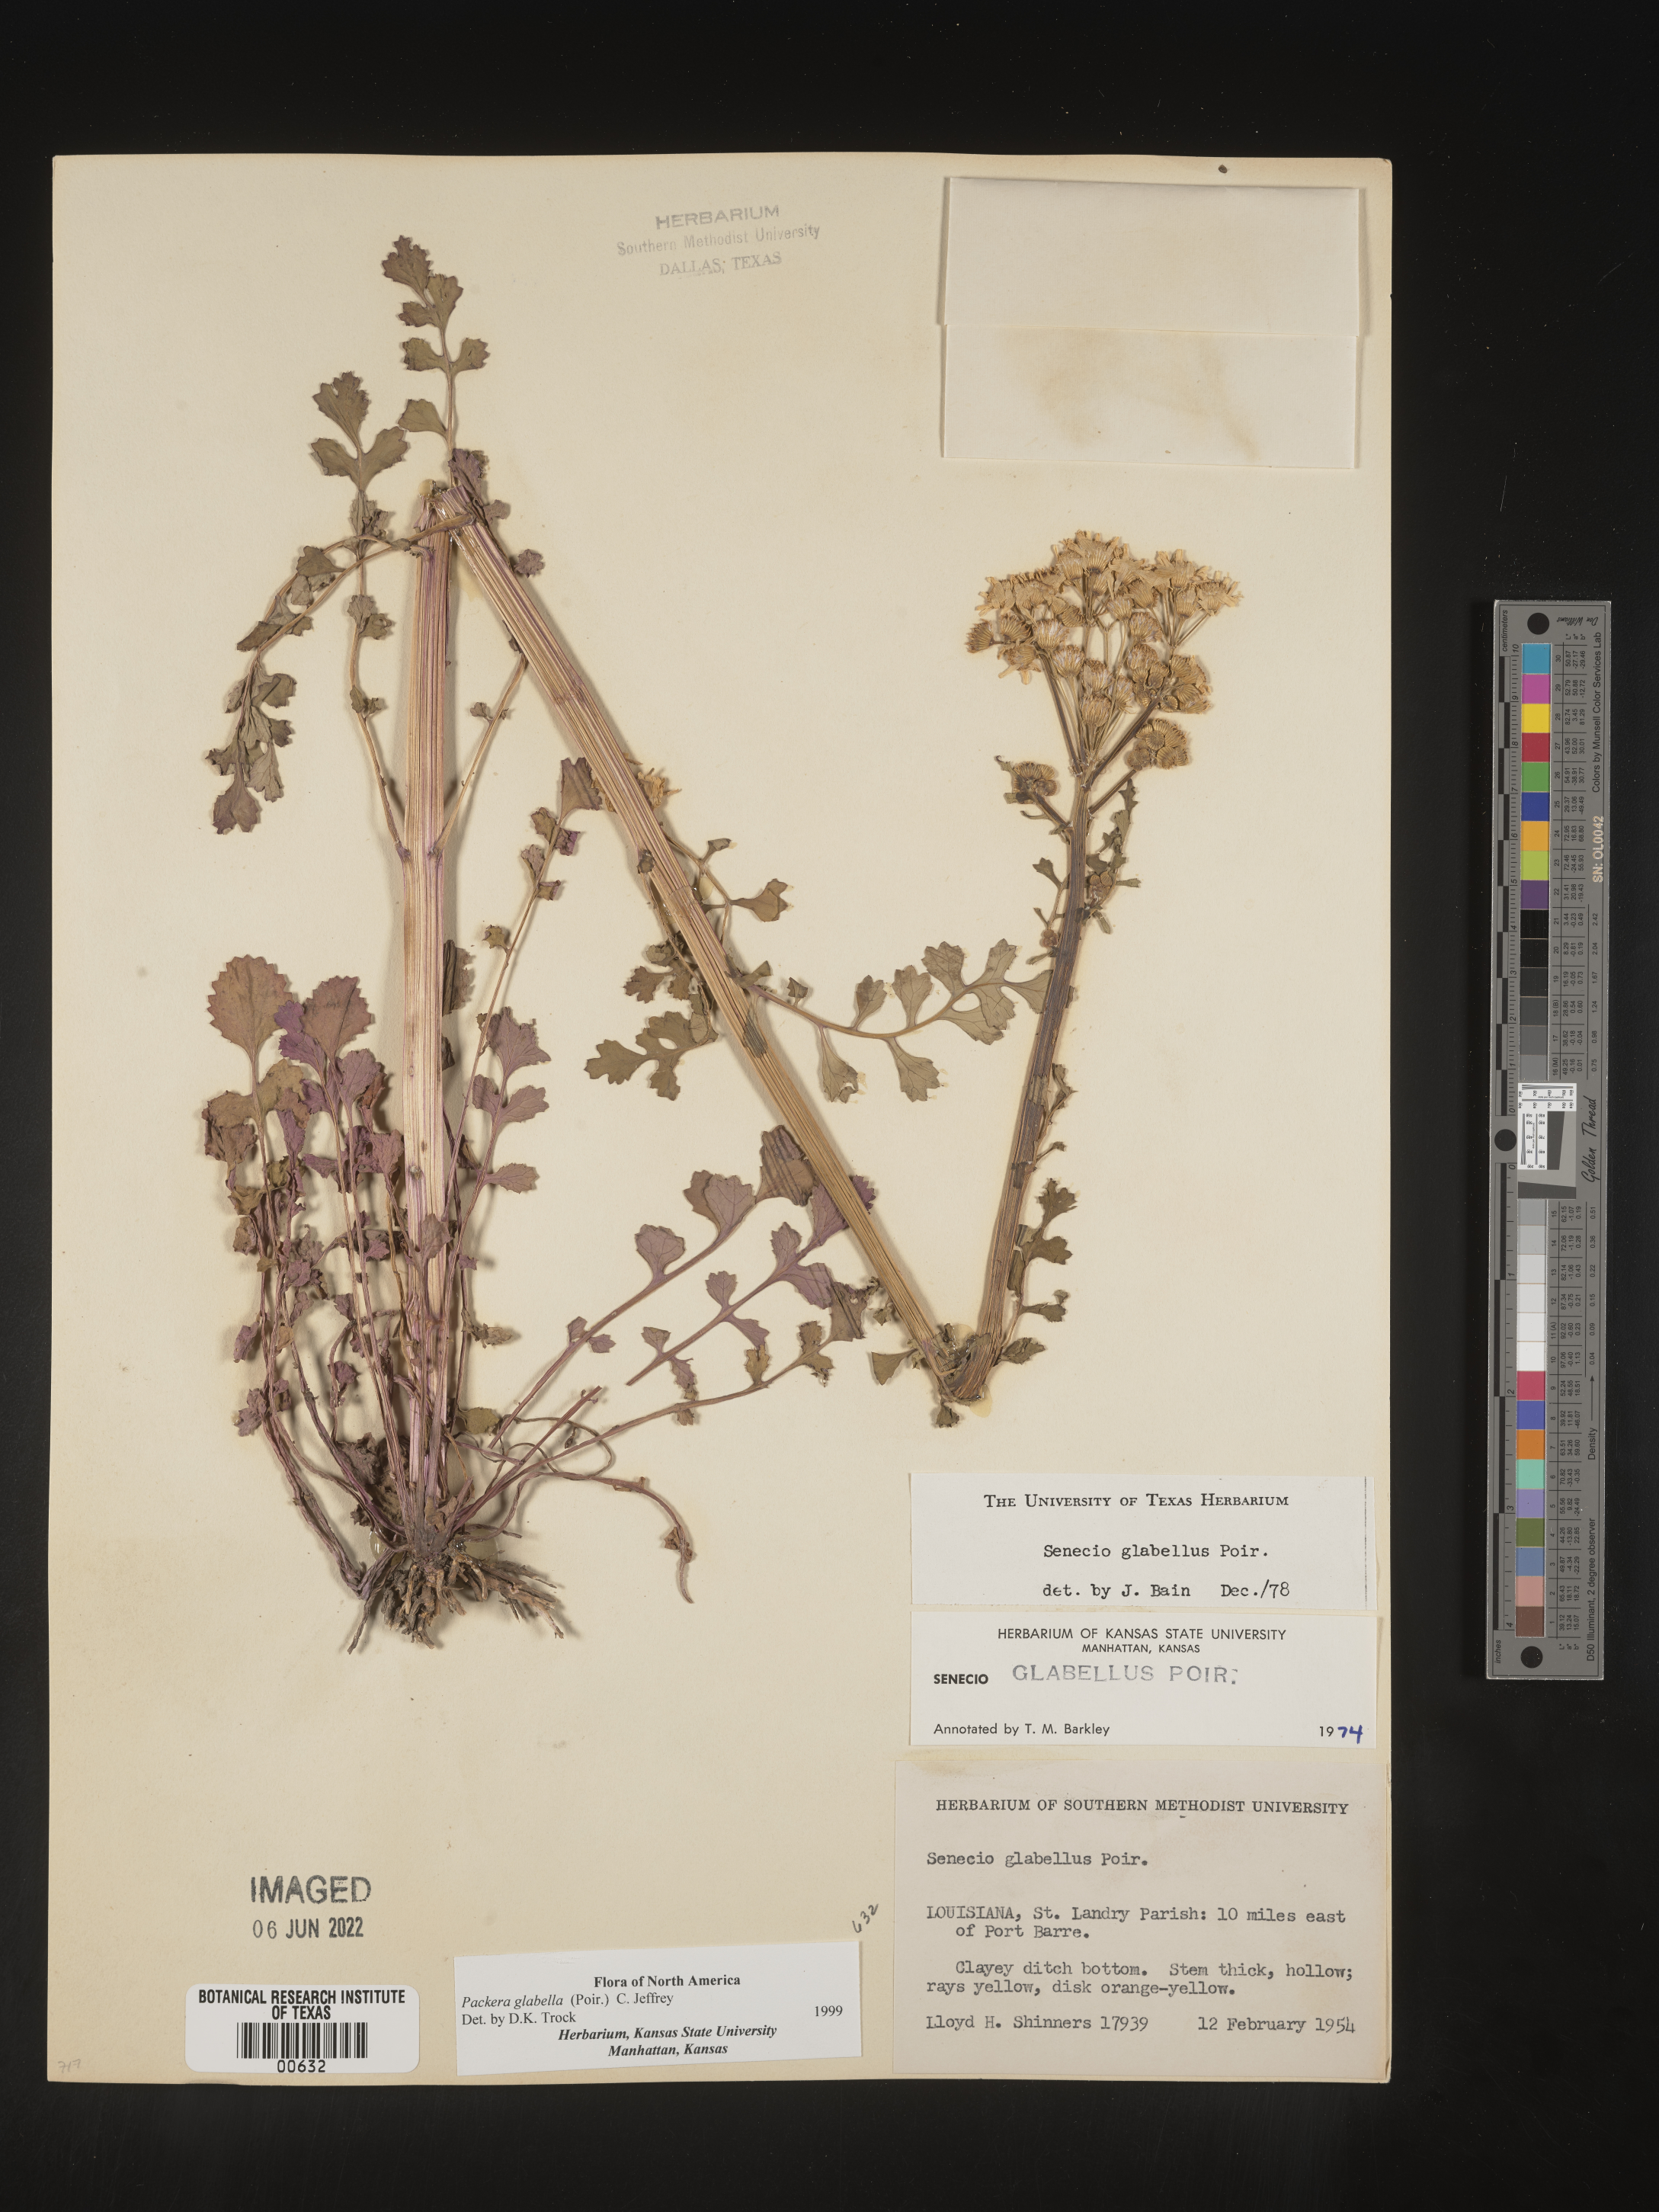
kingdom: Plantae
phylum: Tracheophyta
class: Magnoliopsida
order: Asterales
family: Asteraceae
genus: Packera
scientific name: Packera glabella
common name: Butterweed
